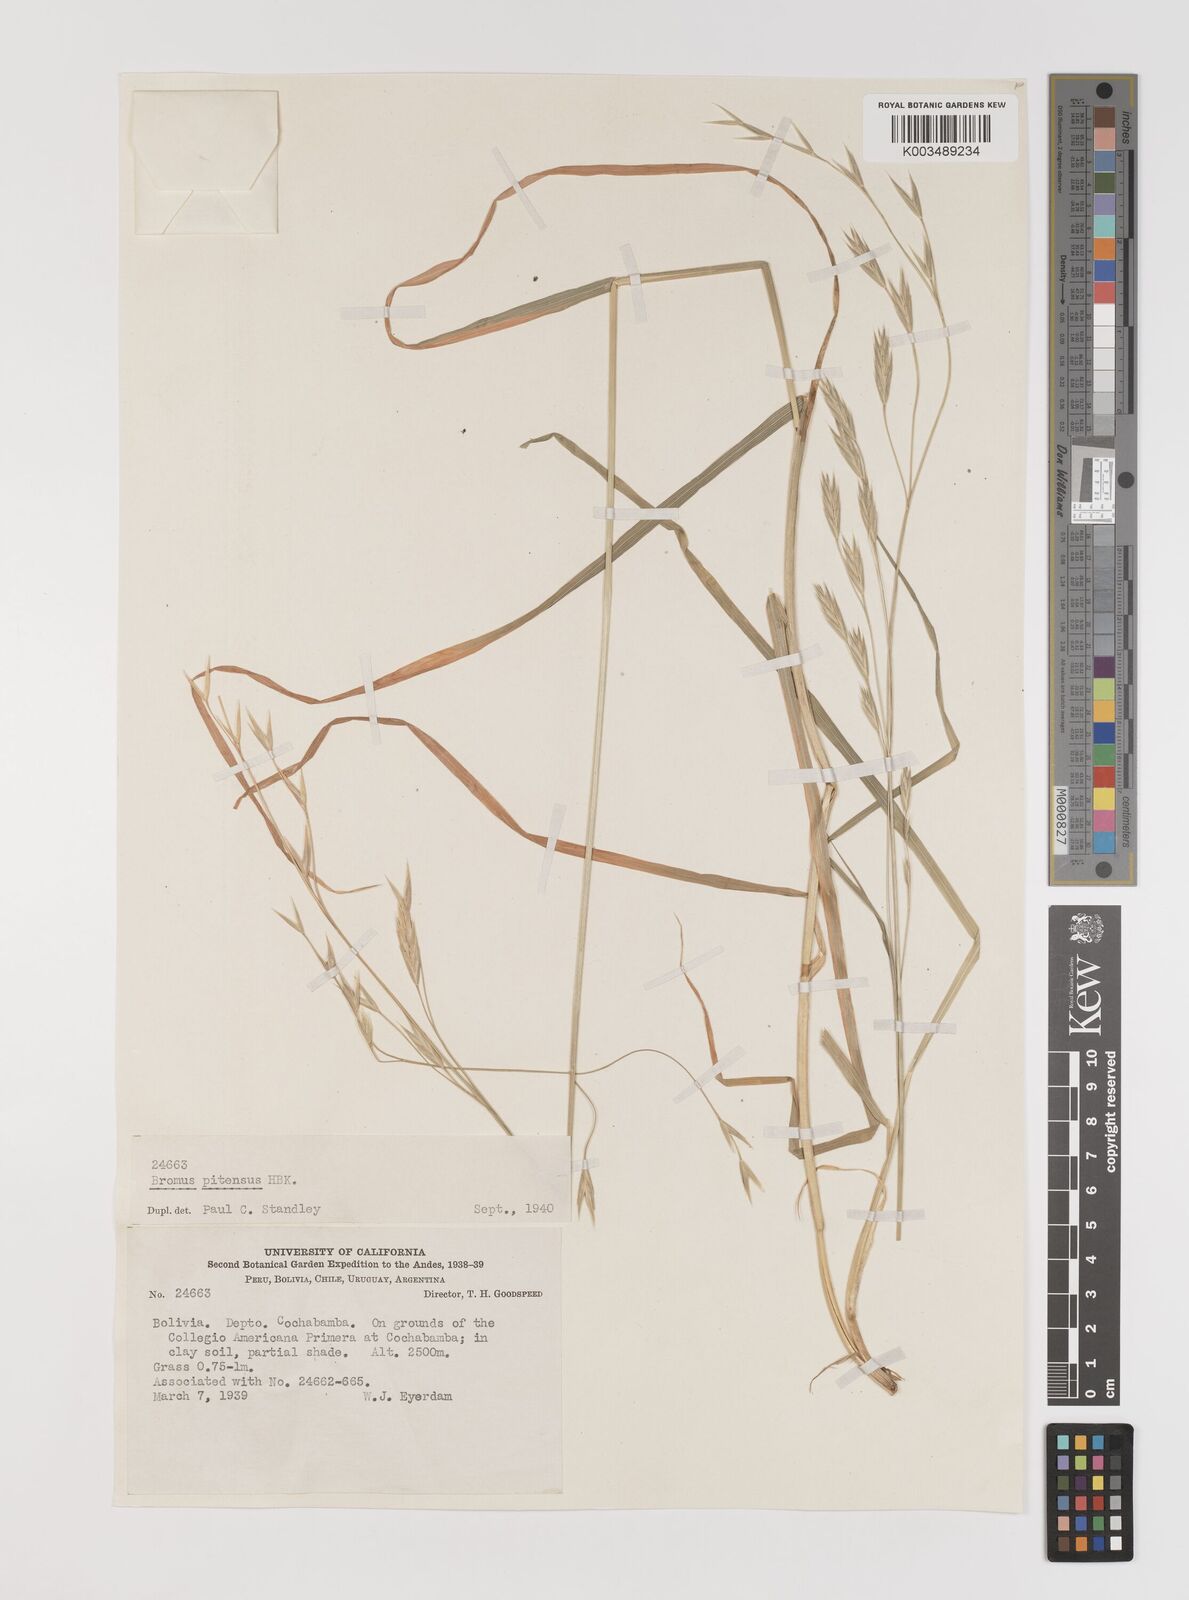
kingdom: Plantae
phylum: Tracheophyta
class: Liliopsida
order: Poales
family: Poaceae
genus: Bromus
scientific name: Bromus catharticus
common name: Rescuegrass
